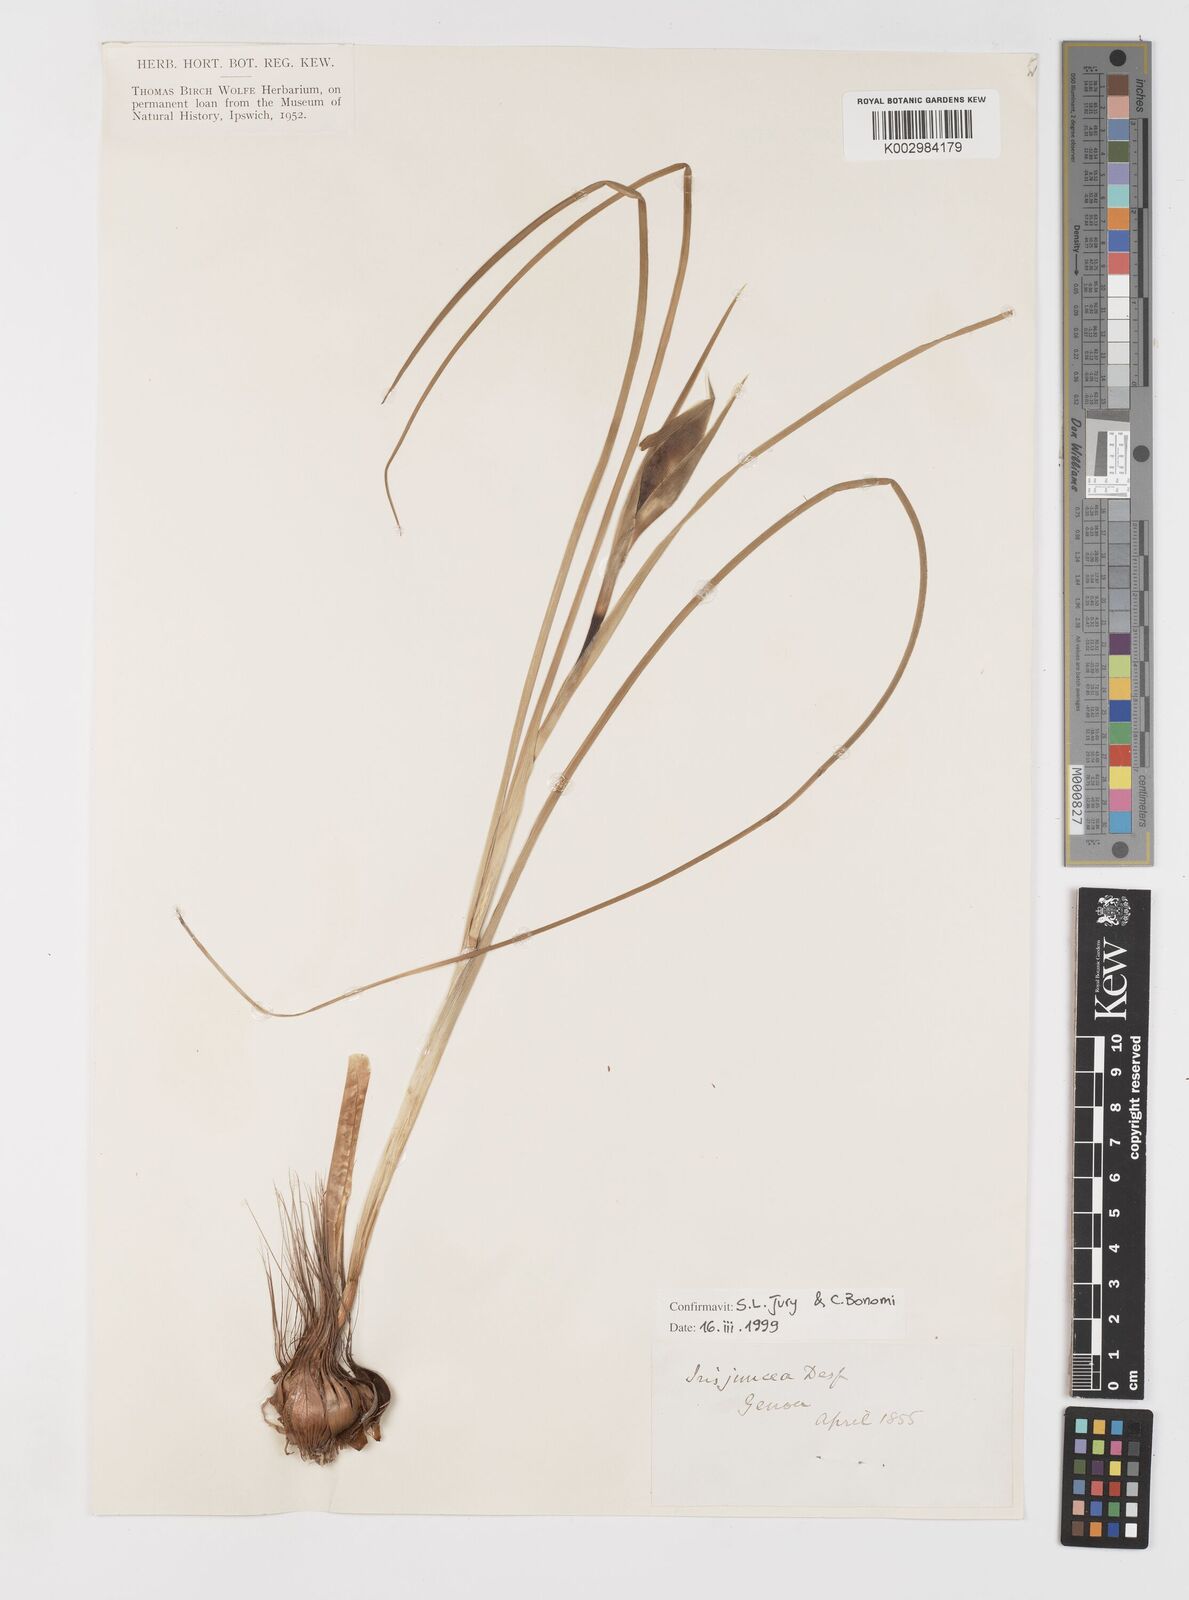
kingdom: Plantae
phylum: Tracheophyta
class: Liliopsida
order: Asparagales
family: Iridaceae
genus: Iris
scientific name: Iris juncea
